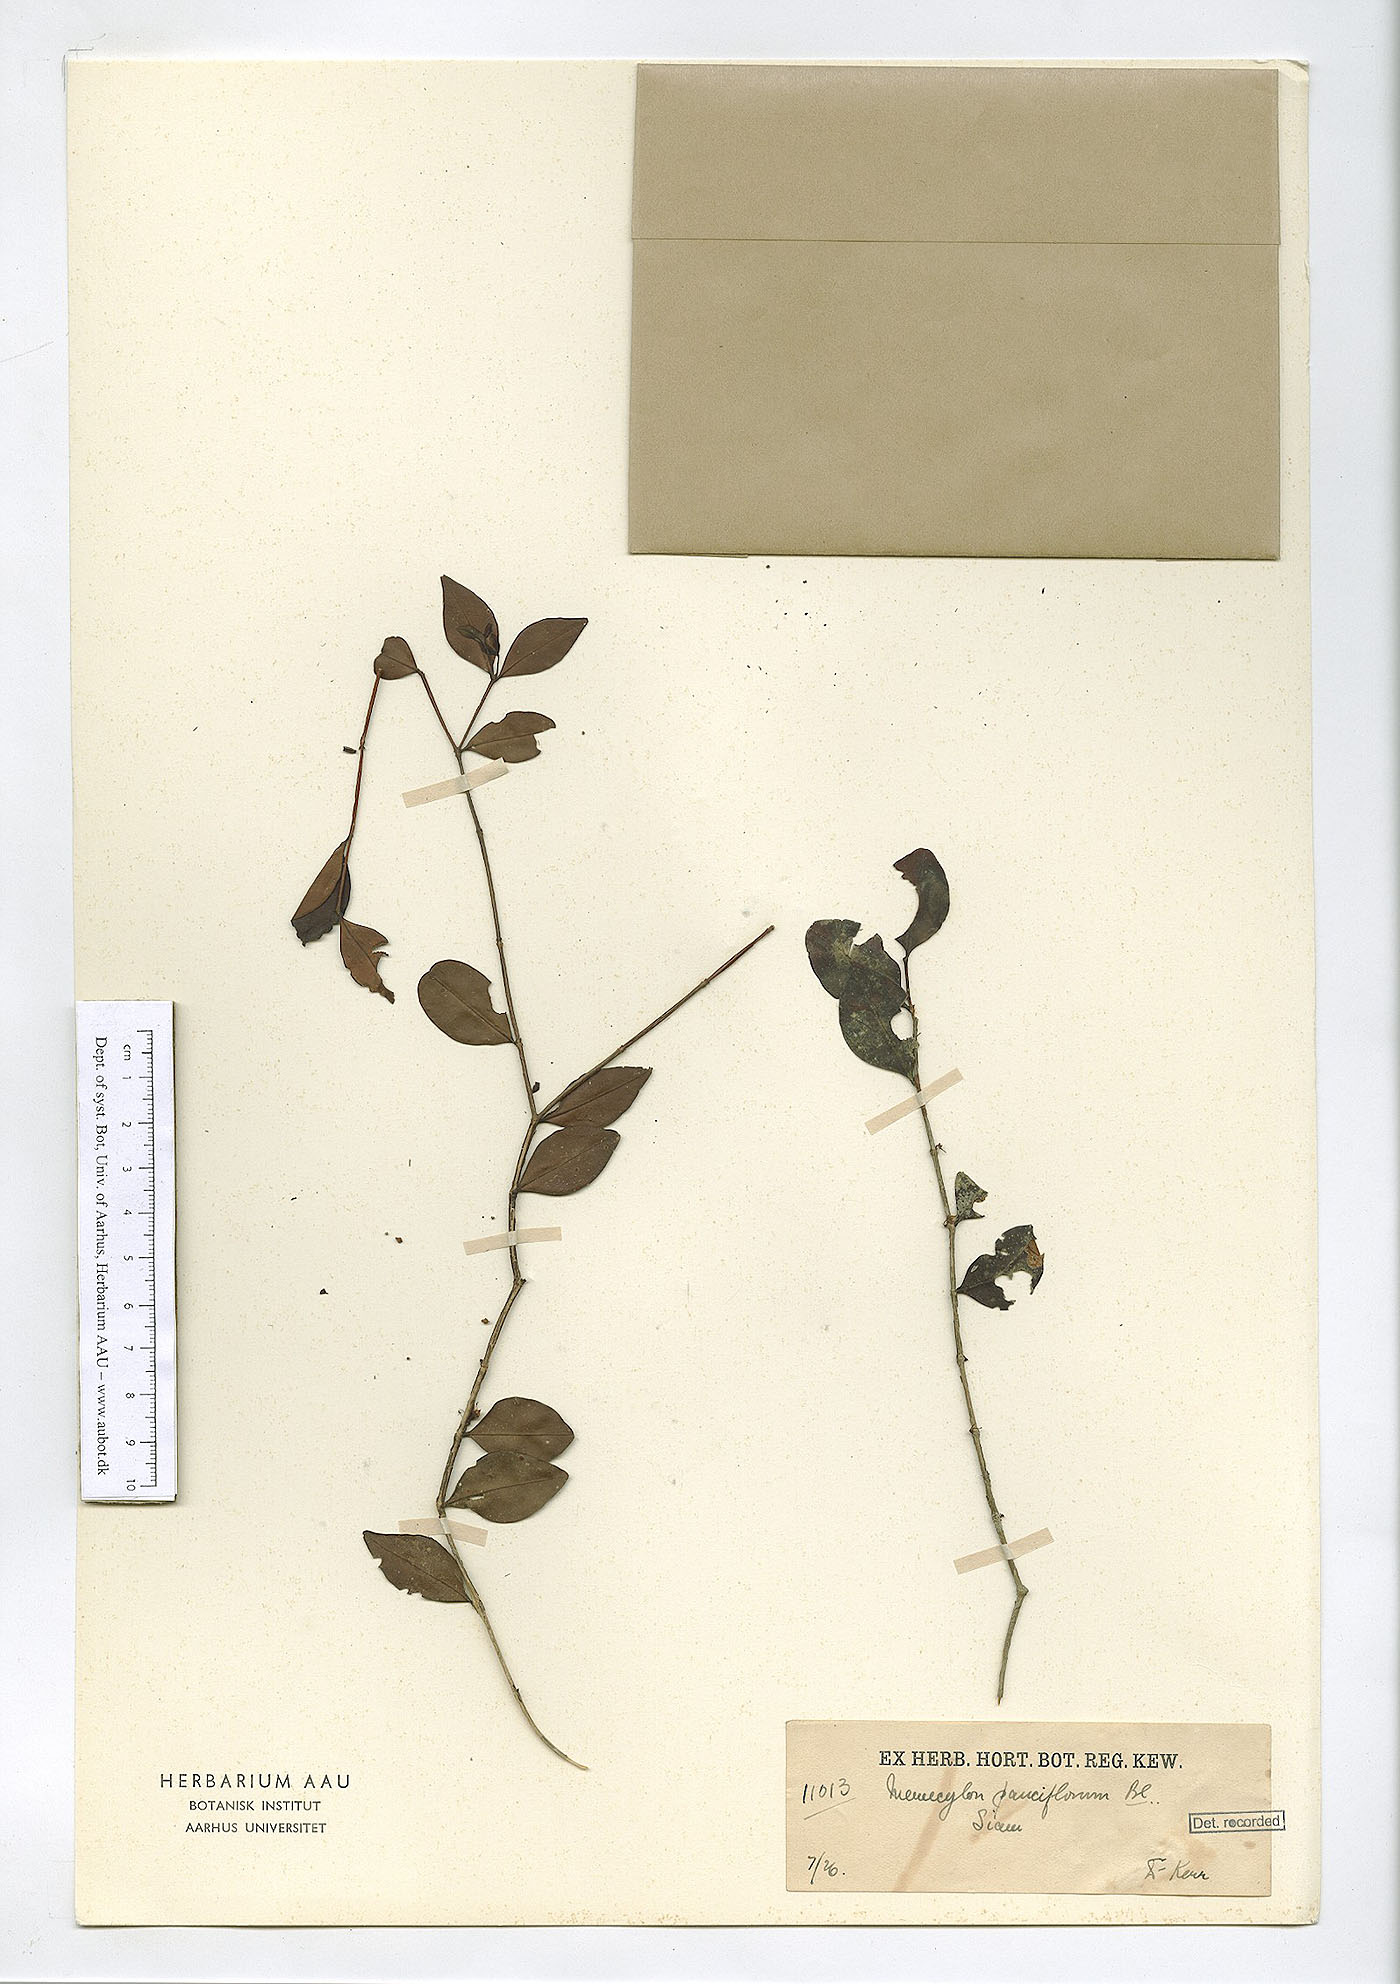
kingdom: Plantae
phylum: Tracheophyta
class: Magnoliopsida
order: Myrtales
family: Melastomataceae
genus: Memecylon
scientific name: Memecylon pauciflorum
